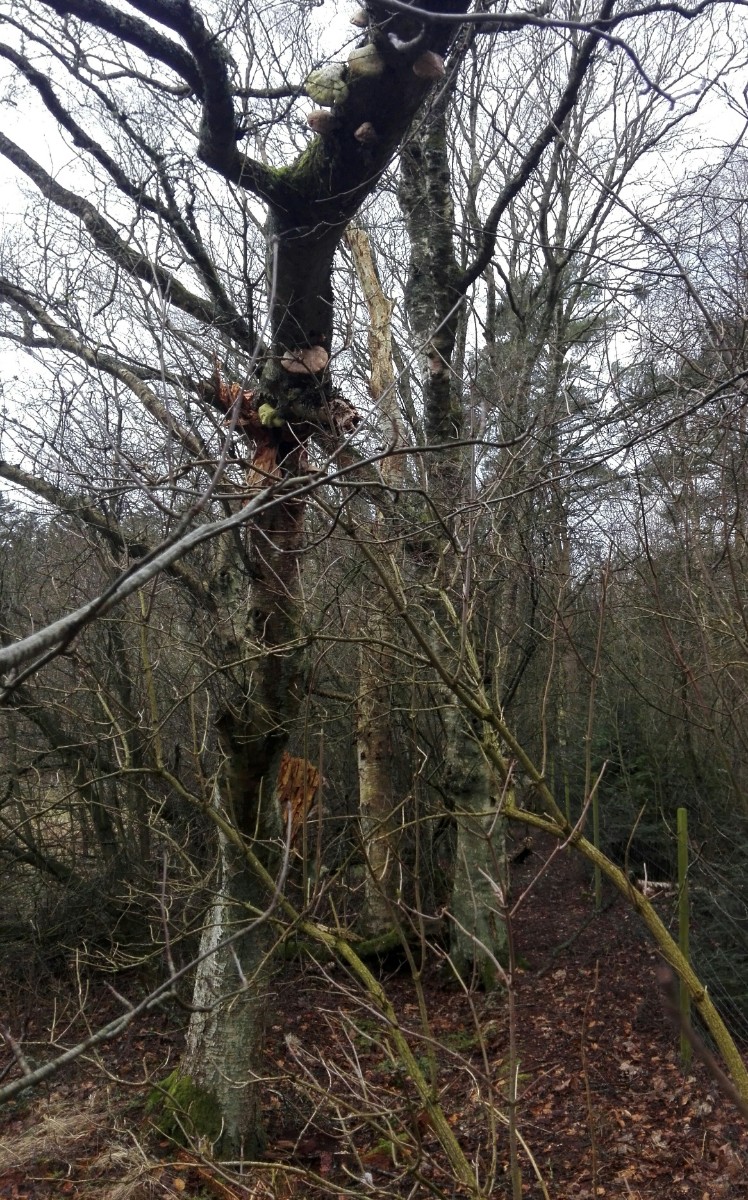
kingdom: Fungi
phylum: Basidiomycota
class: Agaricomycetes
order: Polyporales
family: Fomitopsidaceae
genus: Fomitopsis
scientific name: Fomitopsis betulina
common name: birkeporesvamp
